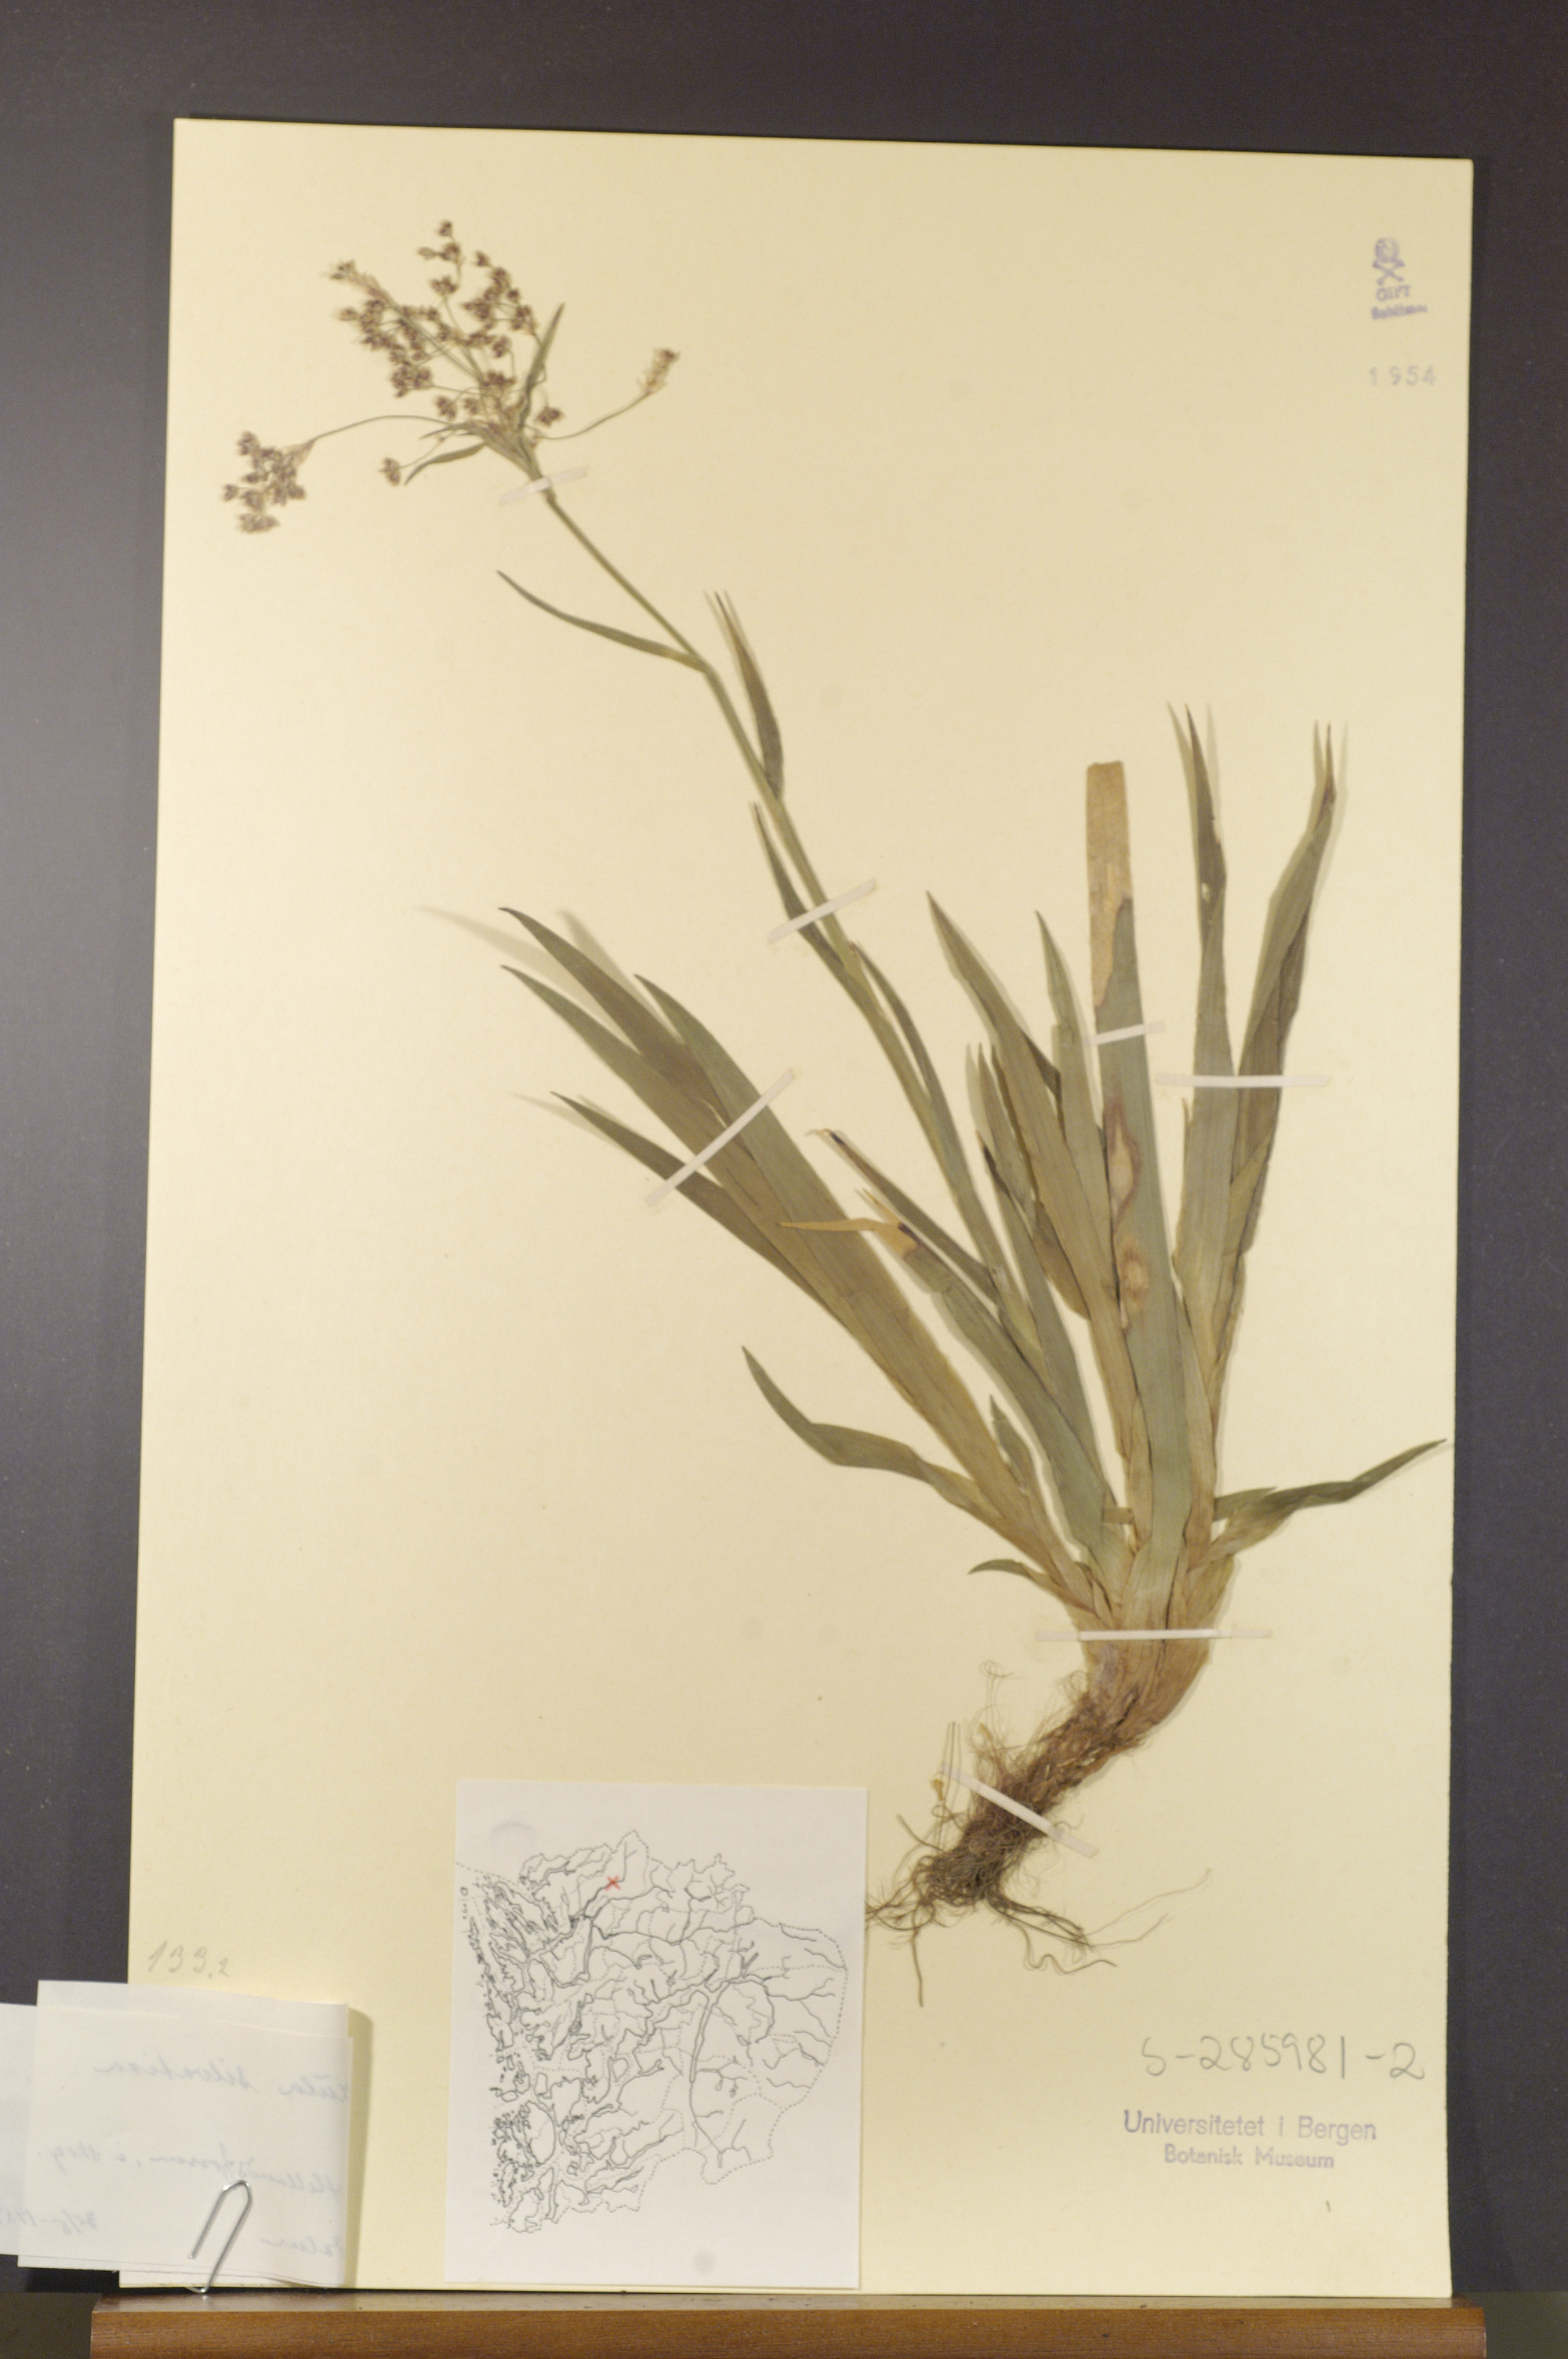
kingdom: Plantae
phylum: Tracheophyta
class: Liliopsida
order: Poales
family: Juncaceae
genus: Luzula
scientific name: Luzula sylvatica
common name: Great wood-rush
